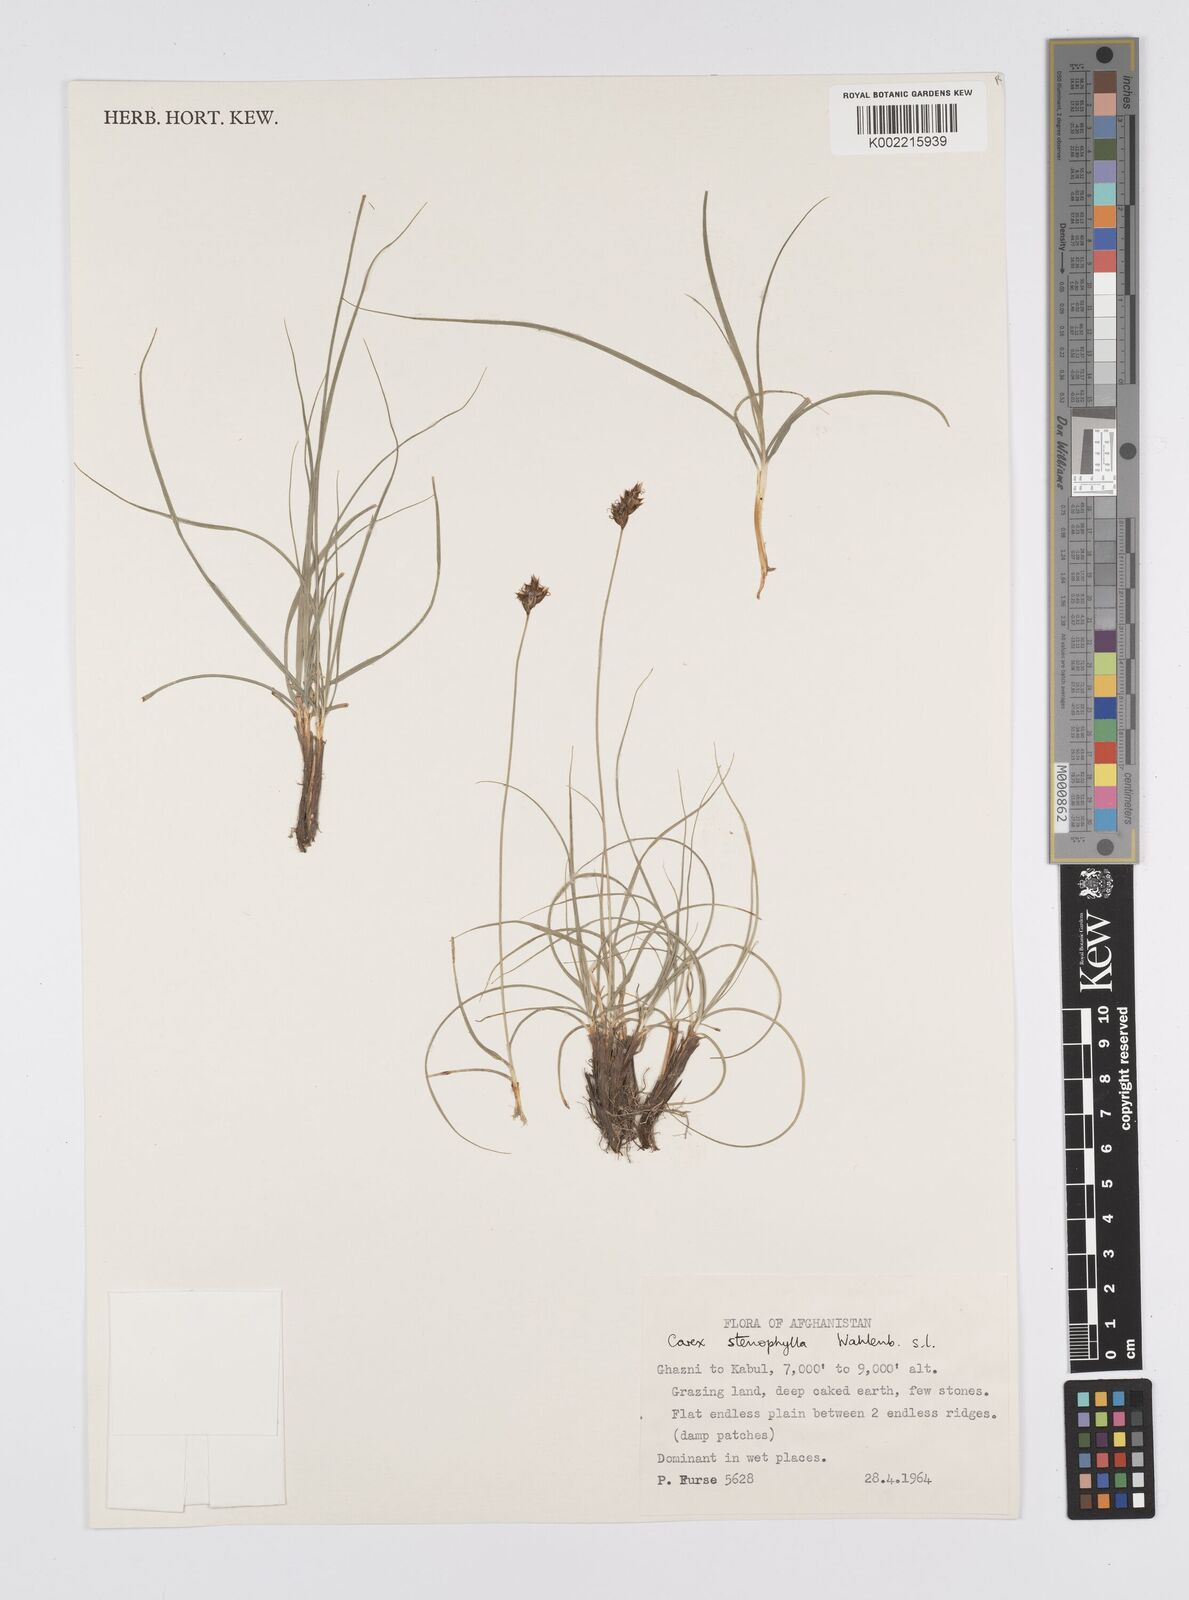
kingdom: Plantae
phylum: Tracheophyta
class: Liliopsida
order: Poales
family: Cyperaceae
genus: Carex
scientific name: Carex stenophylla
